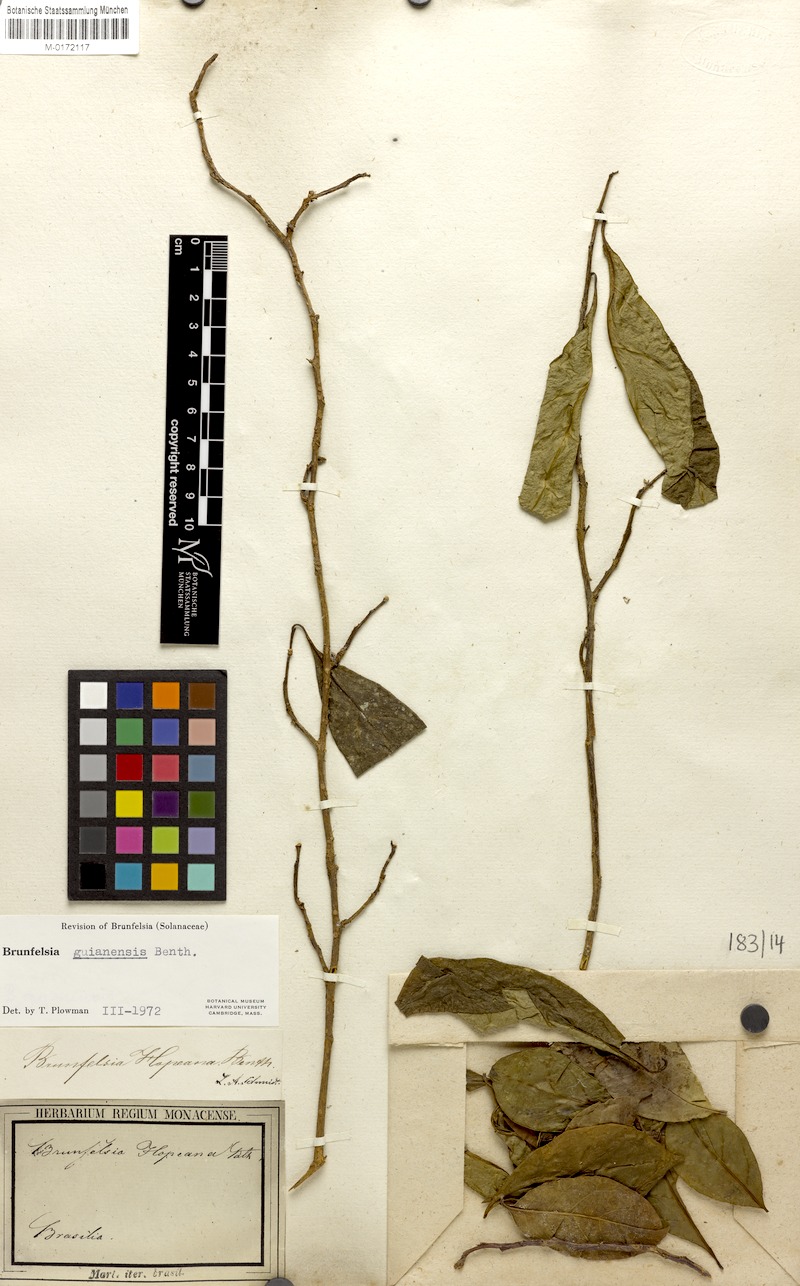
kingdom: Plantae
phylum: Tracheophyta
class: Magnoliopsida
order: Solanales
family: Solanaceae
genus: Brunfelsia
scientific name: Brunfelsia guianensis
